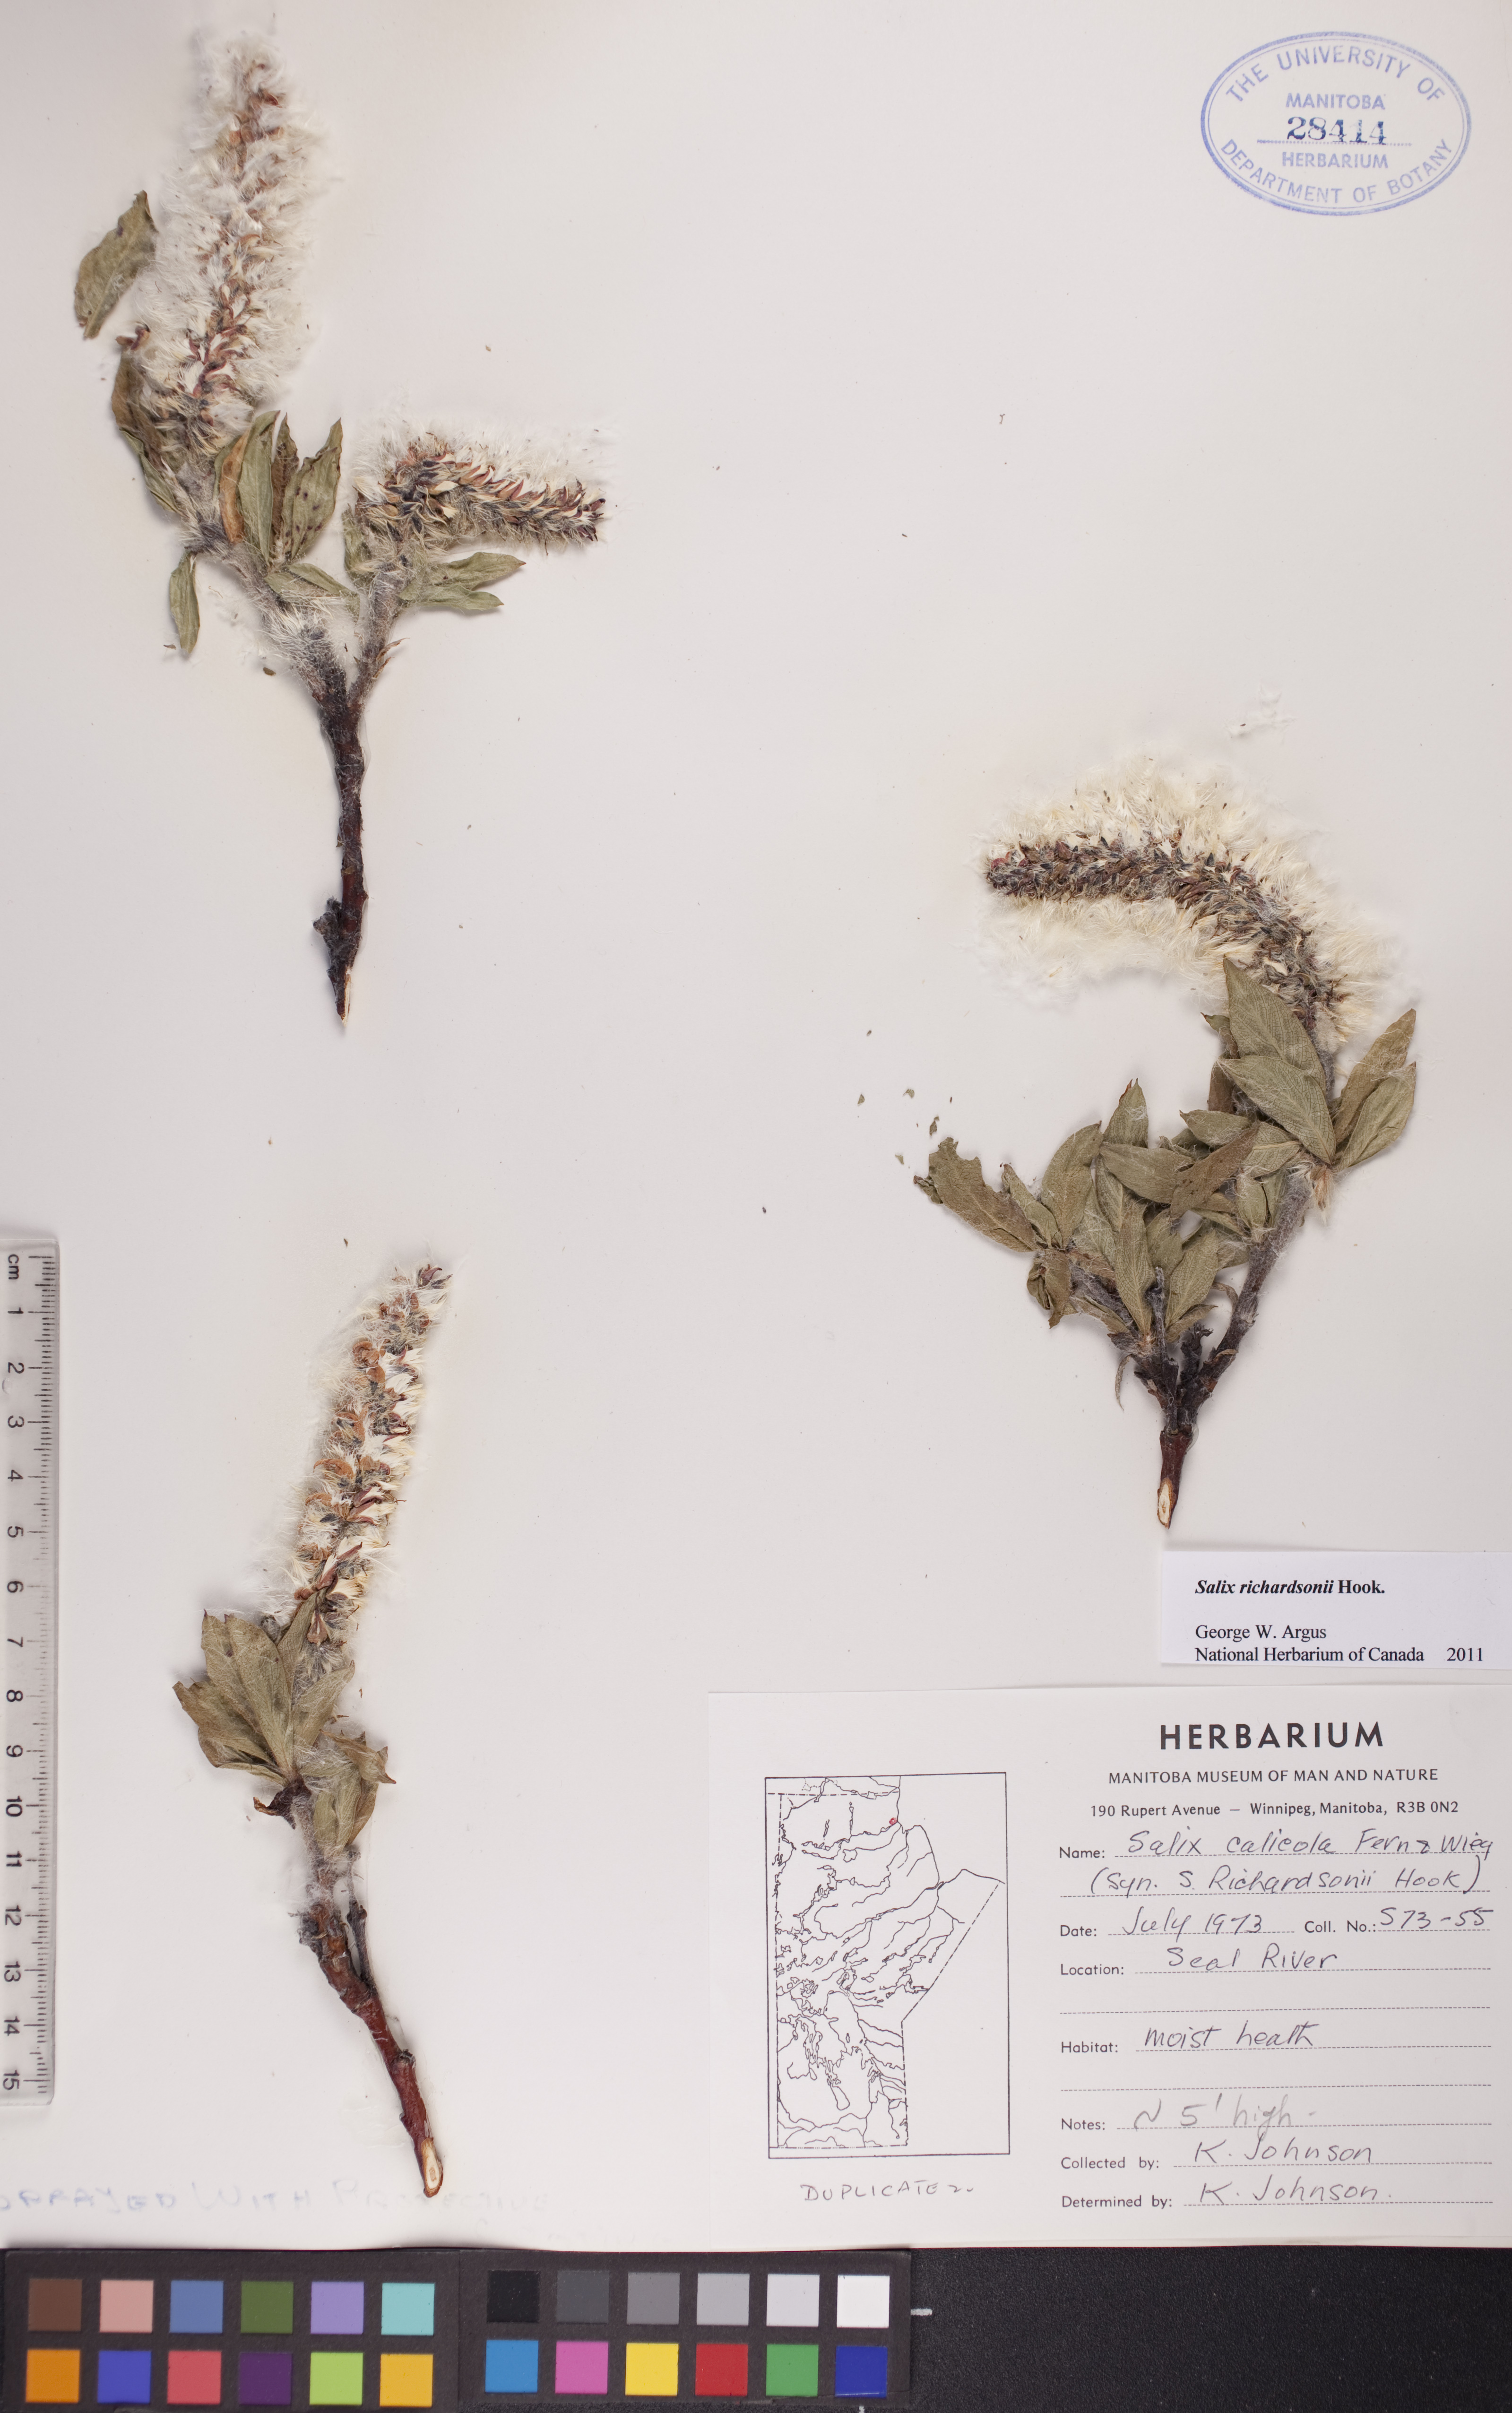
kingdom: Plantae
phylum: Tracheophyta
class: Magnoliopsida
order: Malpighiales
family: Salicaceae
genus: Salix
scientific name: Salix richardsonii
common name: Richardson’s willow
